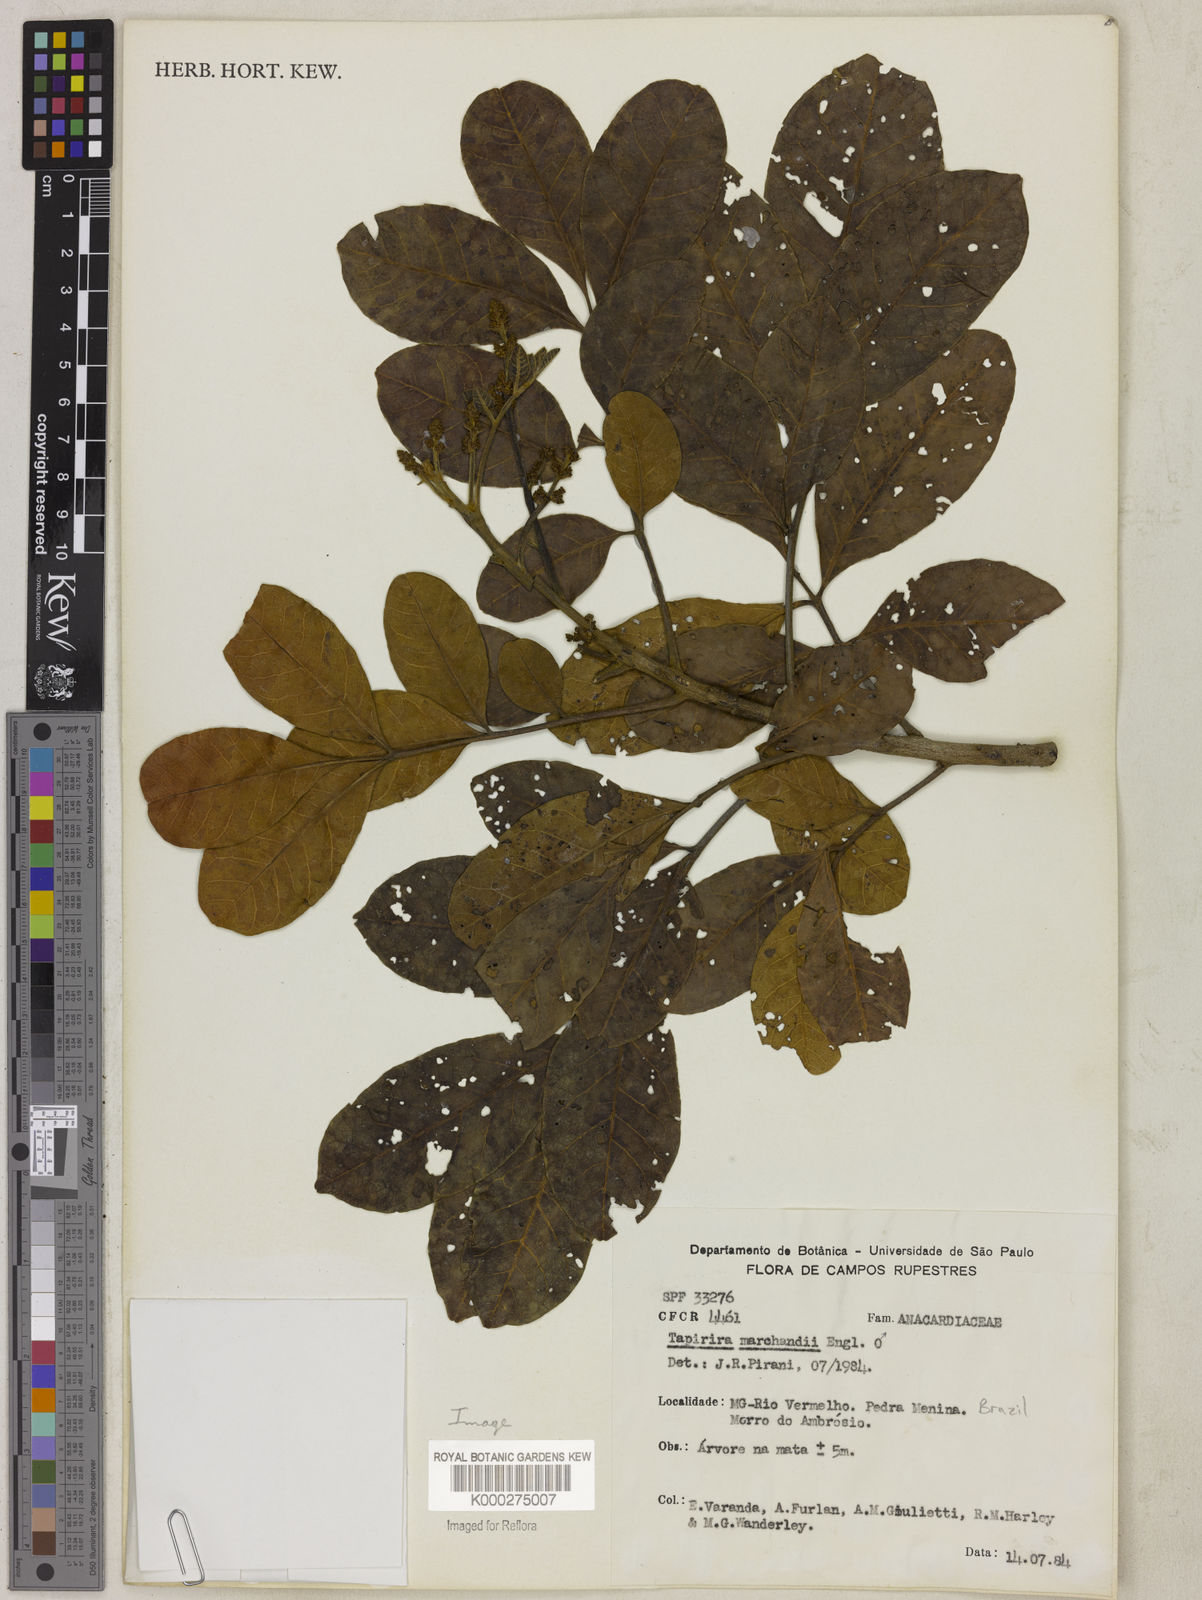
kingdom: Plantae
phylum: Tracheophyta
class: Magnoliopsida
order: Sapindales
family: Anacardiaceae
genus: Tapirira
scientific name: Tapirira obtusa
